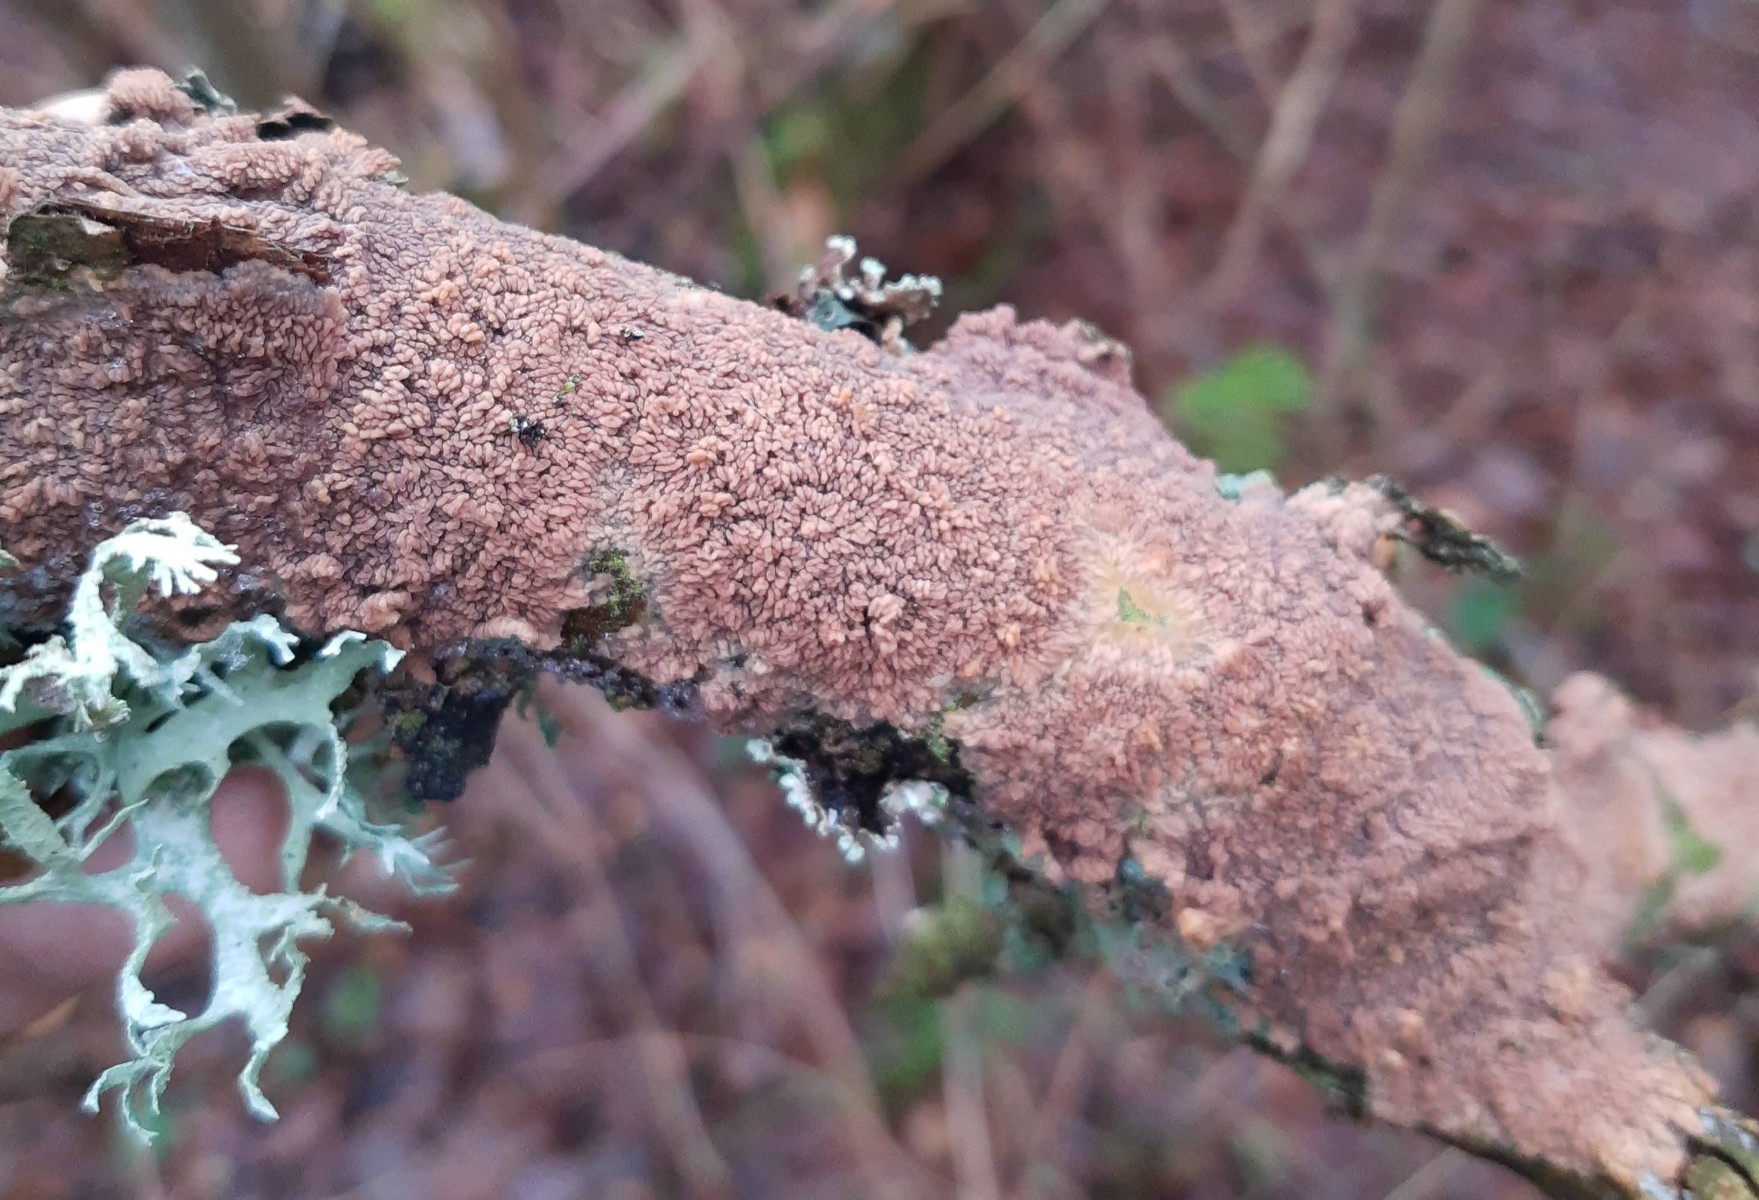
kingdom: Fungi
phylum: Basidiomycota
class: Agaricomycetes
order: Polyporales
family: Meruliaceae
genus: Phlebia
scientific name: Phlebia radiata
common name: stråle-åresvamp
